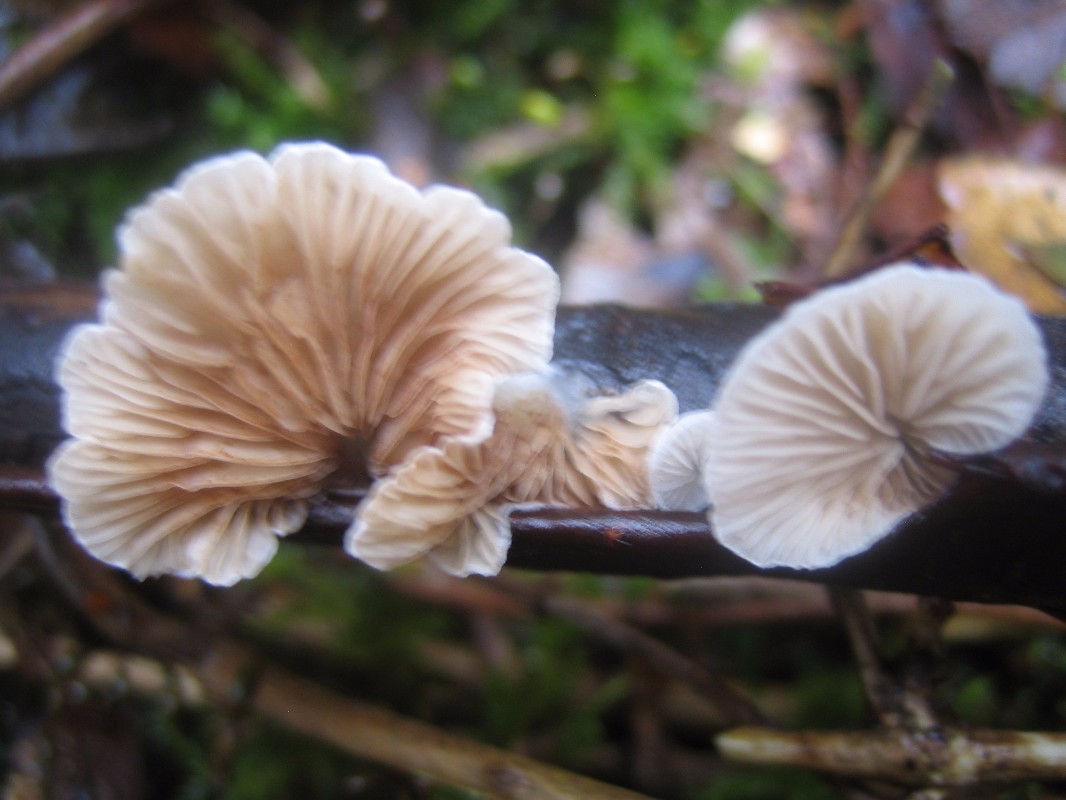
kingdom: Fungi
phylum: Basidiomycota
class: Agaricomycetes
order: Agaricales
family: Crepidotaceae
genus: Crepidotus
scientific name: Crepidotus
